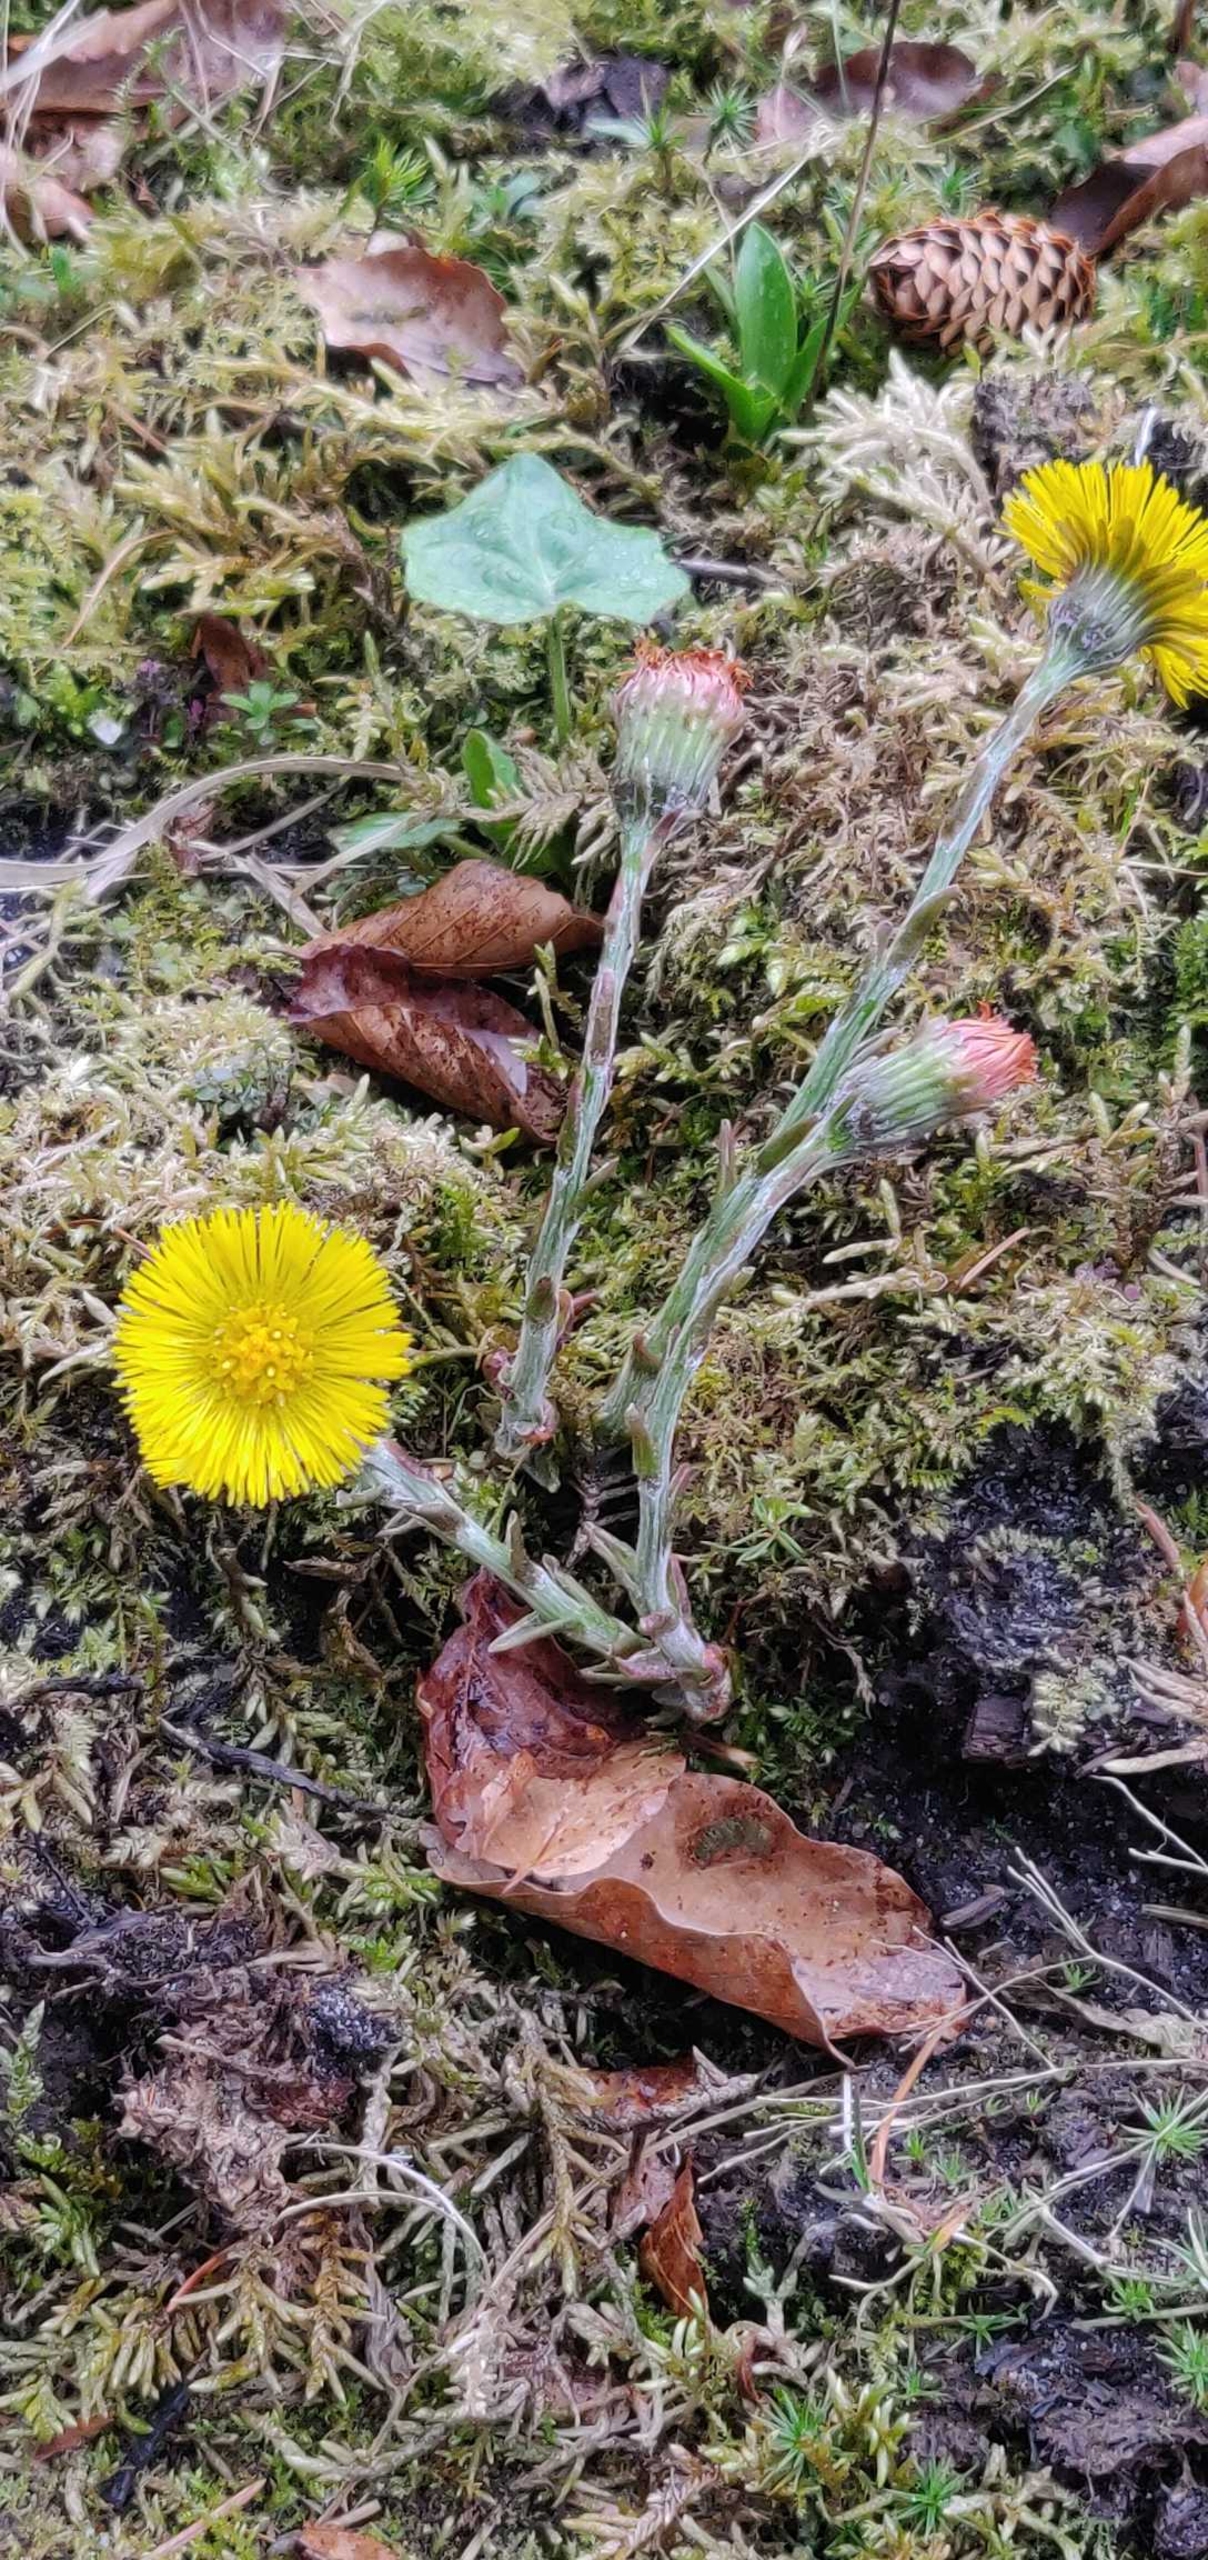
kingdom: Plantae
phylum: Tracheophyta
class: Magnoliopsida
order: Asterales
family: Asteraceae
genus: Tussilago
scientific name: Tussilago farfara
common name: Følfod
